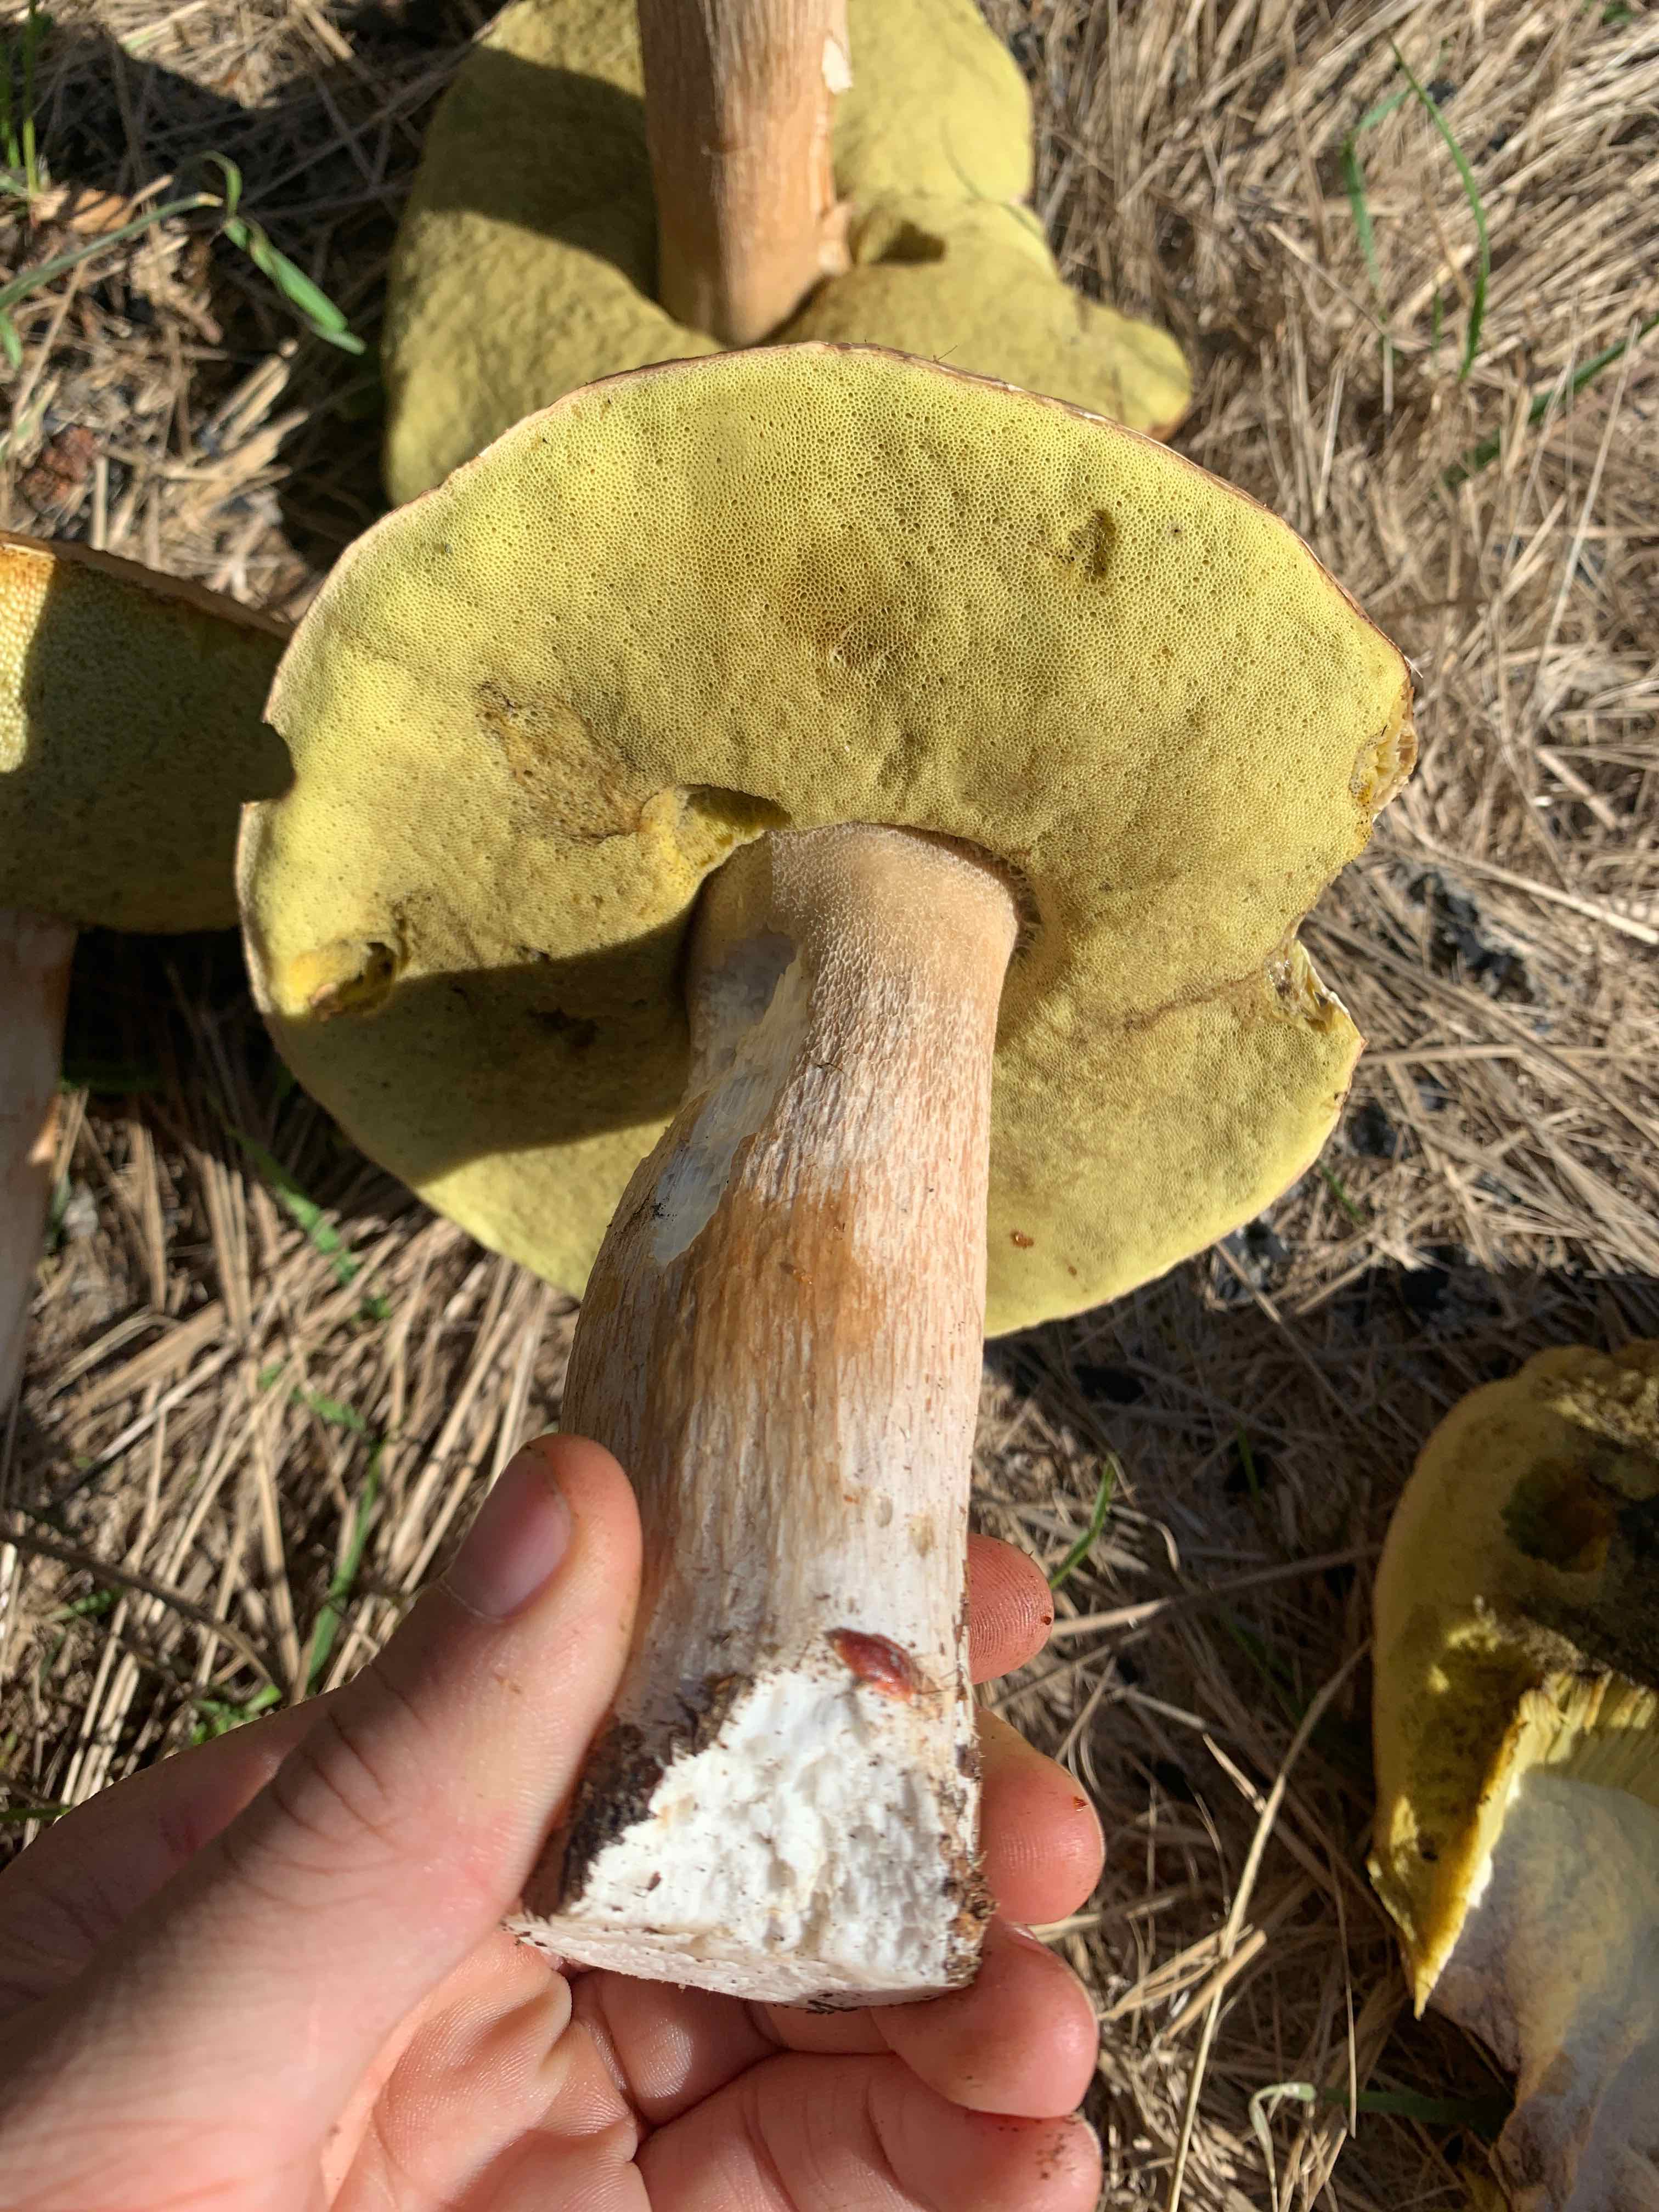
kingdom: Fungi
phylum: Basidiomycota
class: Agaricomycetes
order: Boletales
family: Boletaceae
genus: Boletus
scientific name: Boletus edulis
